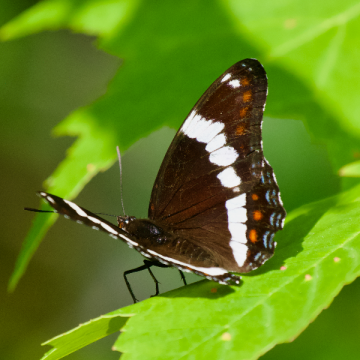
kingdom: Animalia
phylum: Arthropoda
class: Insecta
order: Lepidoptera
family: Nymphalidae
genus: Limenitis
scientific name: Limenitis arthemis
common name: Red-spotted Admiral
